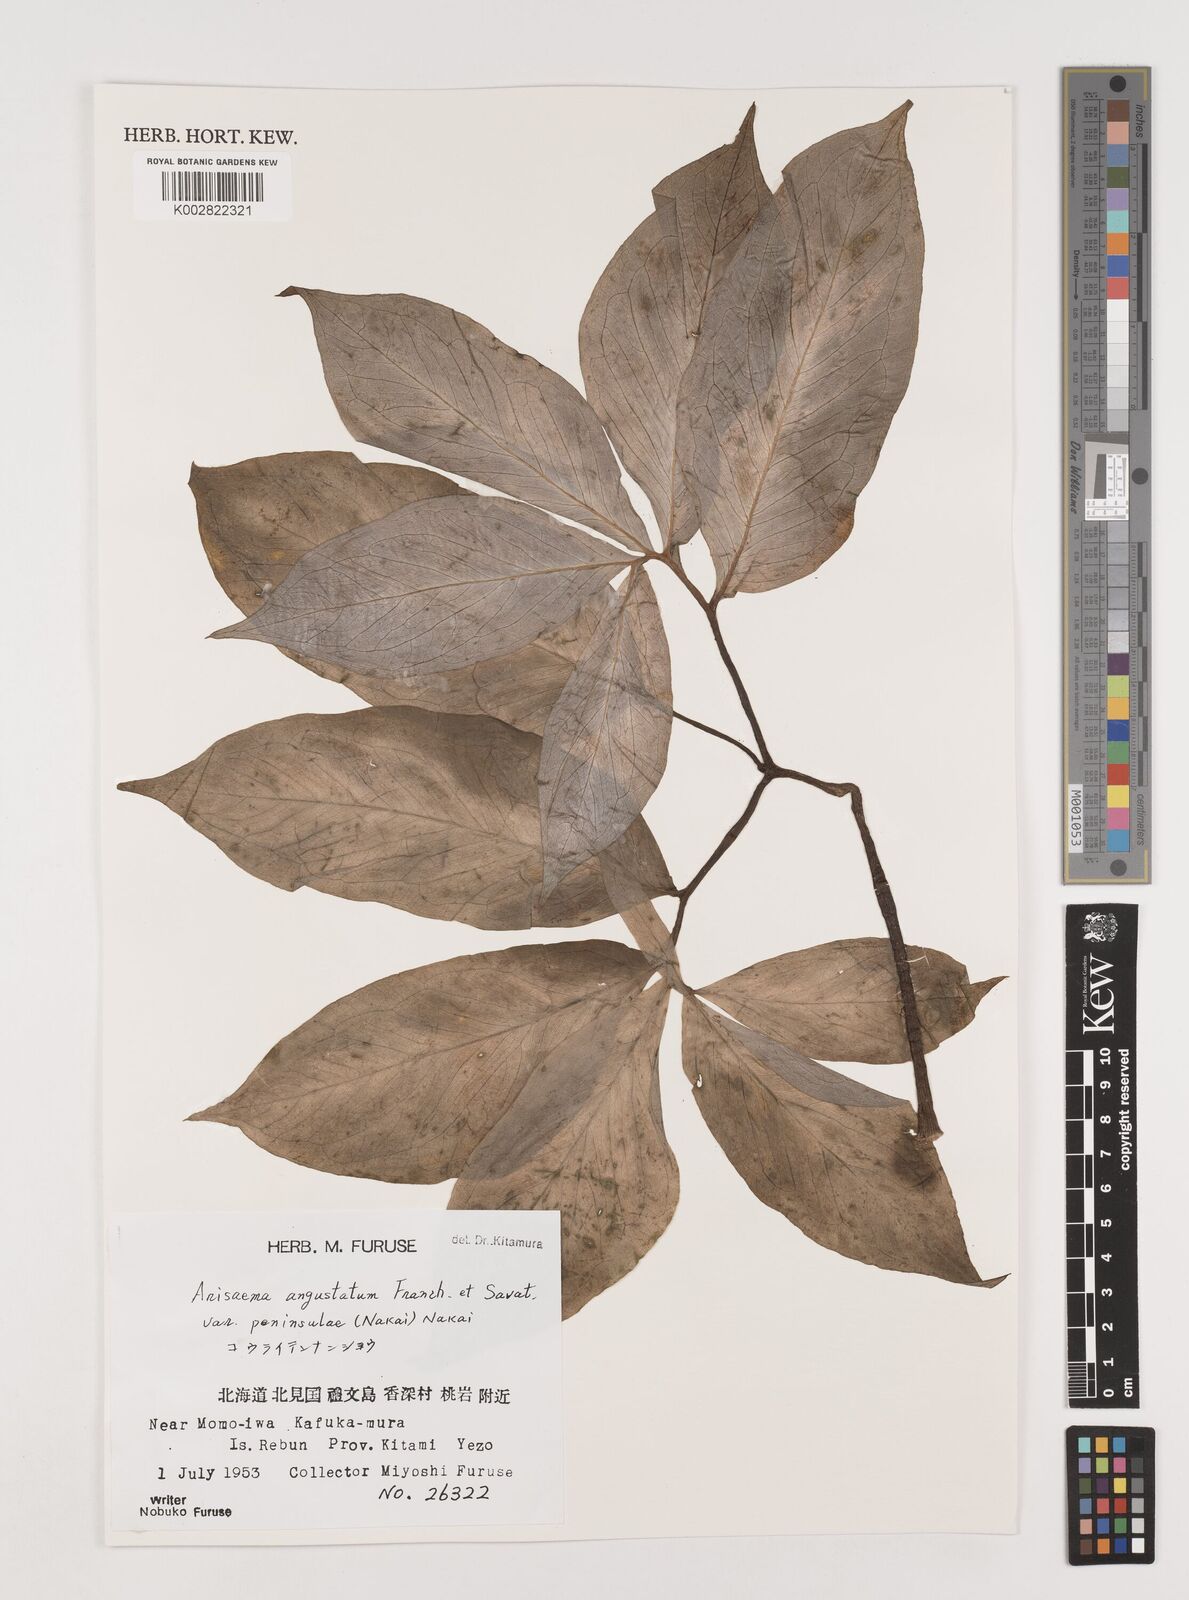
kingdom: Plantae
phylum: Tracheophyta
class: Liliopsida
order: Alismatales
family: Araceae
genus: Arisaema
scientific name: Arisaema angustatum
